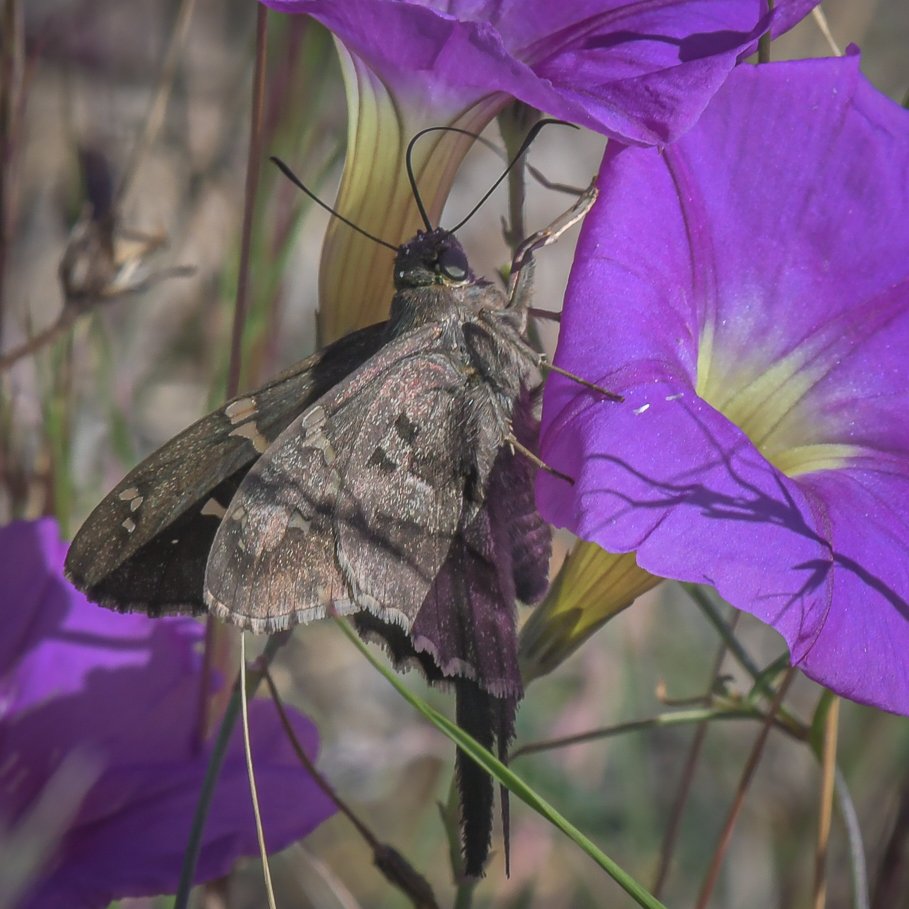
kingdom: Animalia
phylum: Arthropoda
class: Insecta
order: Lepidoptera
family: Hesperiidae
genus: Urbanus
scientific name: Urbanus proteus
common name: Long-tailed Skipper
